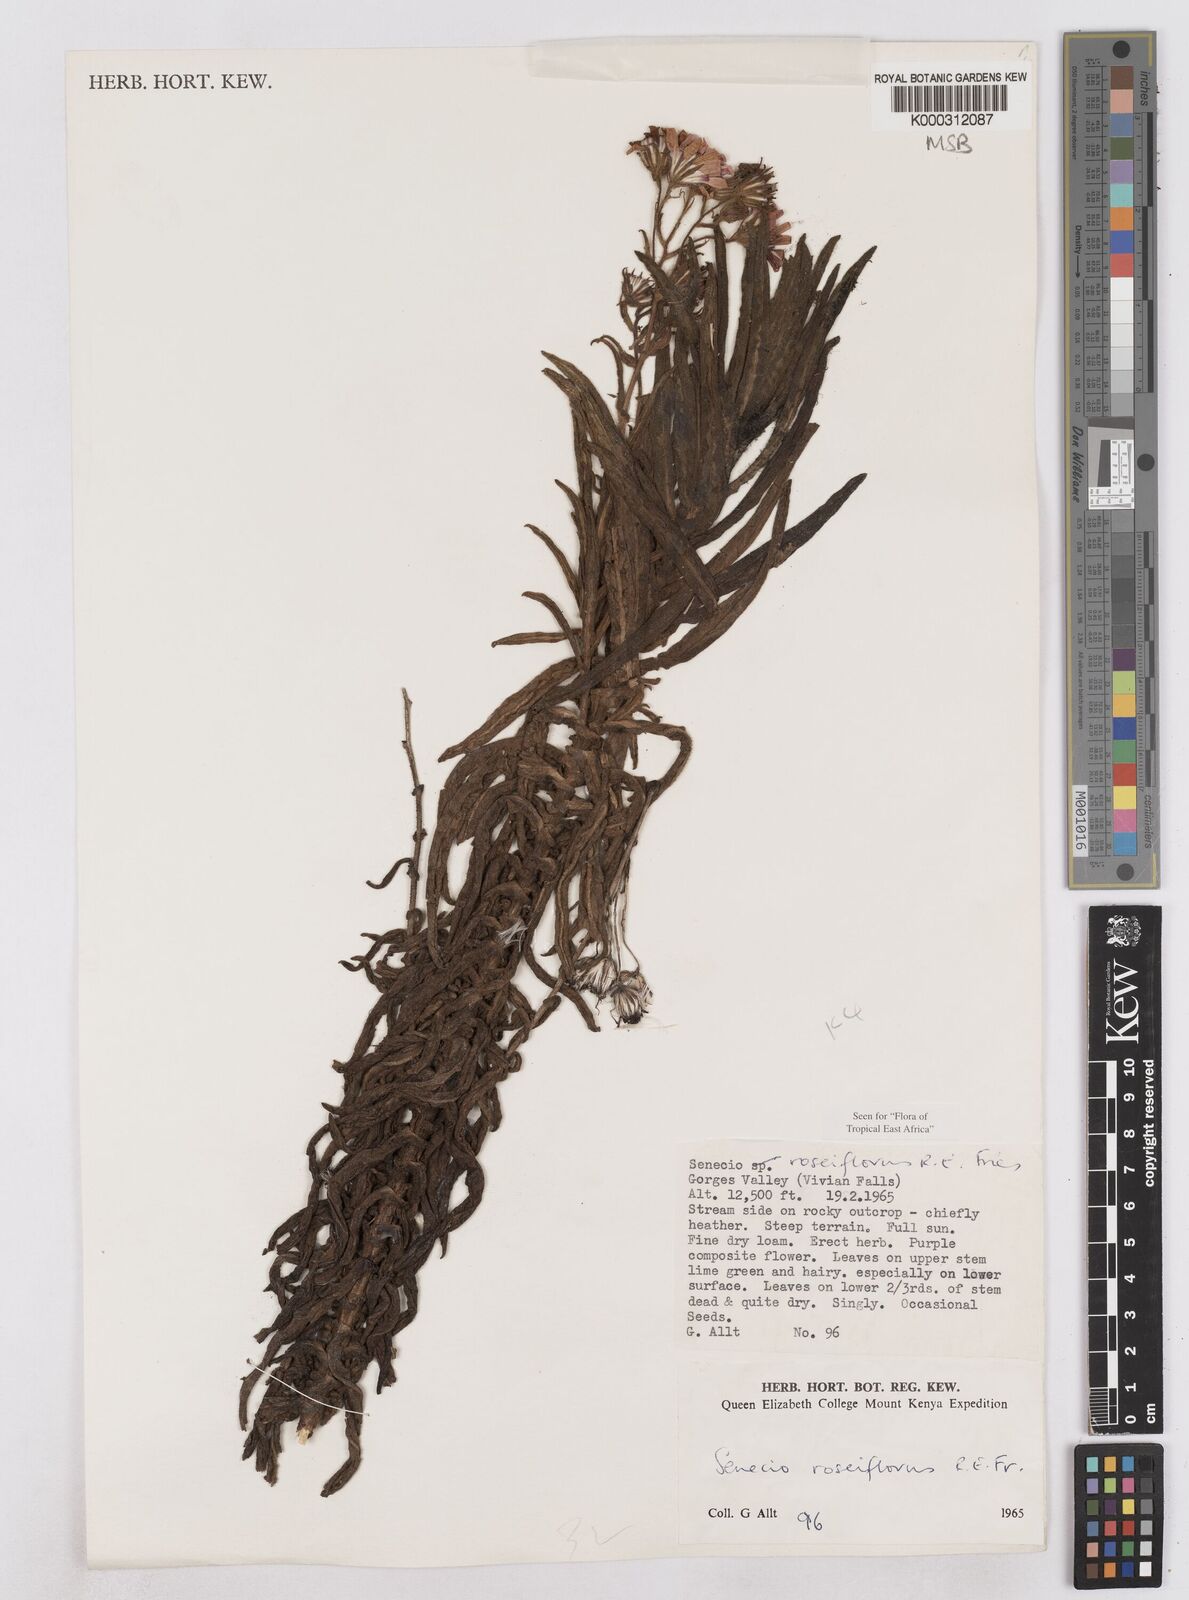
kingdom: Plantae
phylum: Tracheophyta
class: Magnoliopsida
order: Asterales
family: Asteraceae
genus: Senecio
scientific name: Senecio roseiflorus
